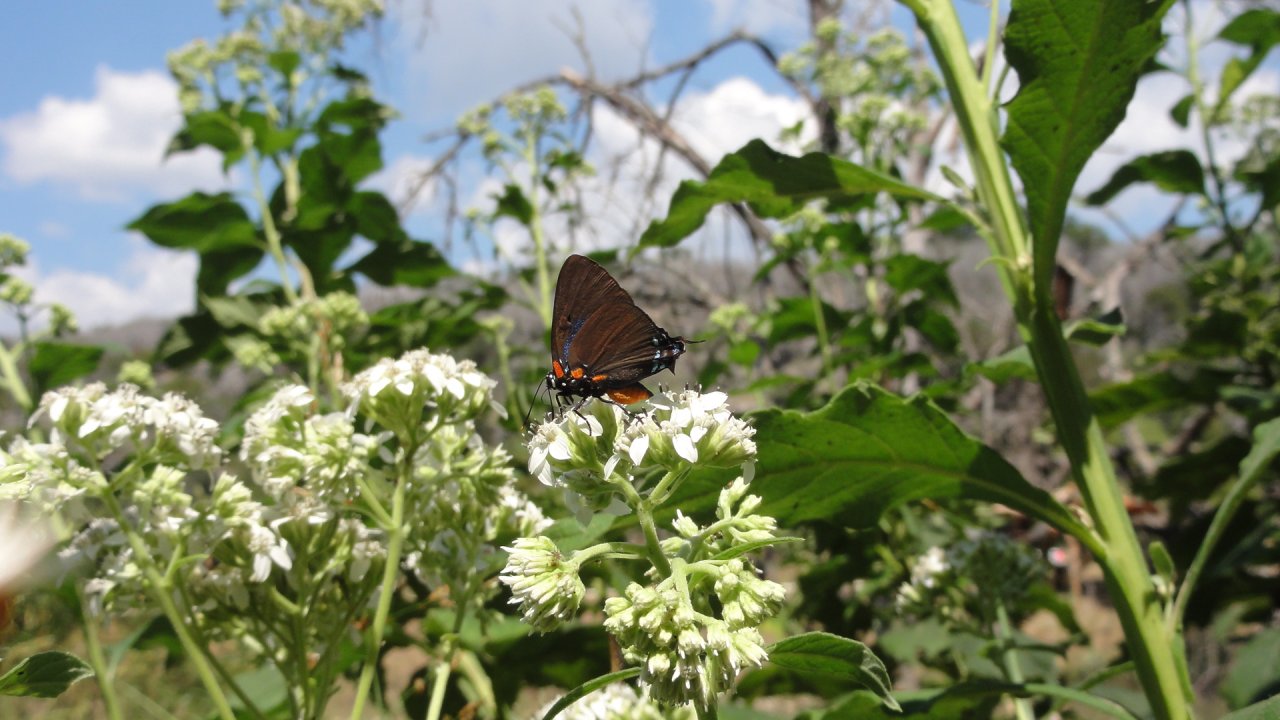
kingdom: Animalia
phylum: Arthropoda
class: Insecta
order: Lepidoptera
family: Lycaenidae
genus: Atlides
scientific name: Atlides halesus
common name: Great Purple Hairstreak
